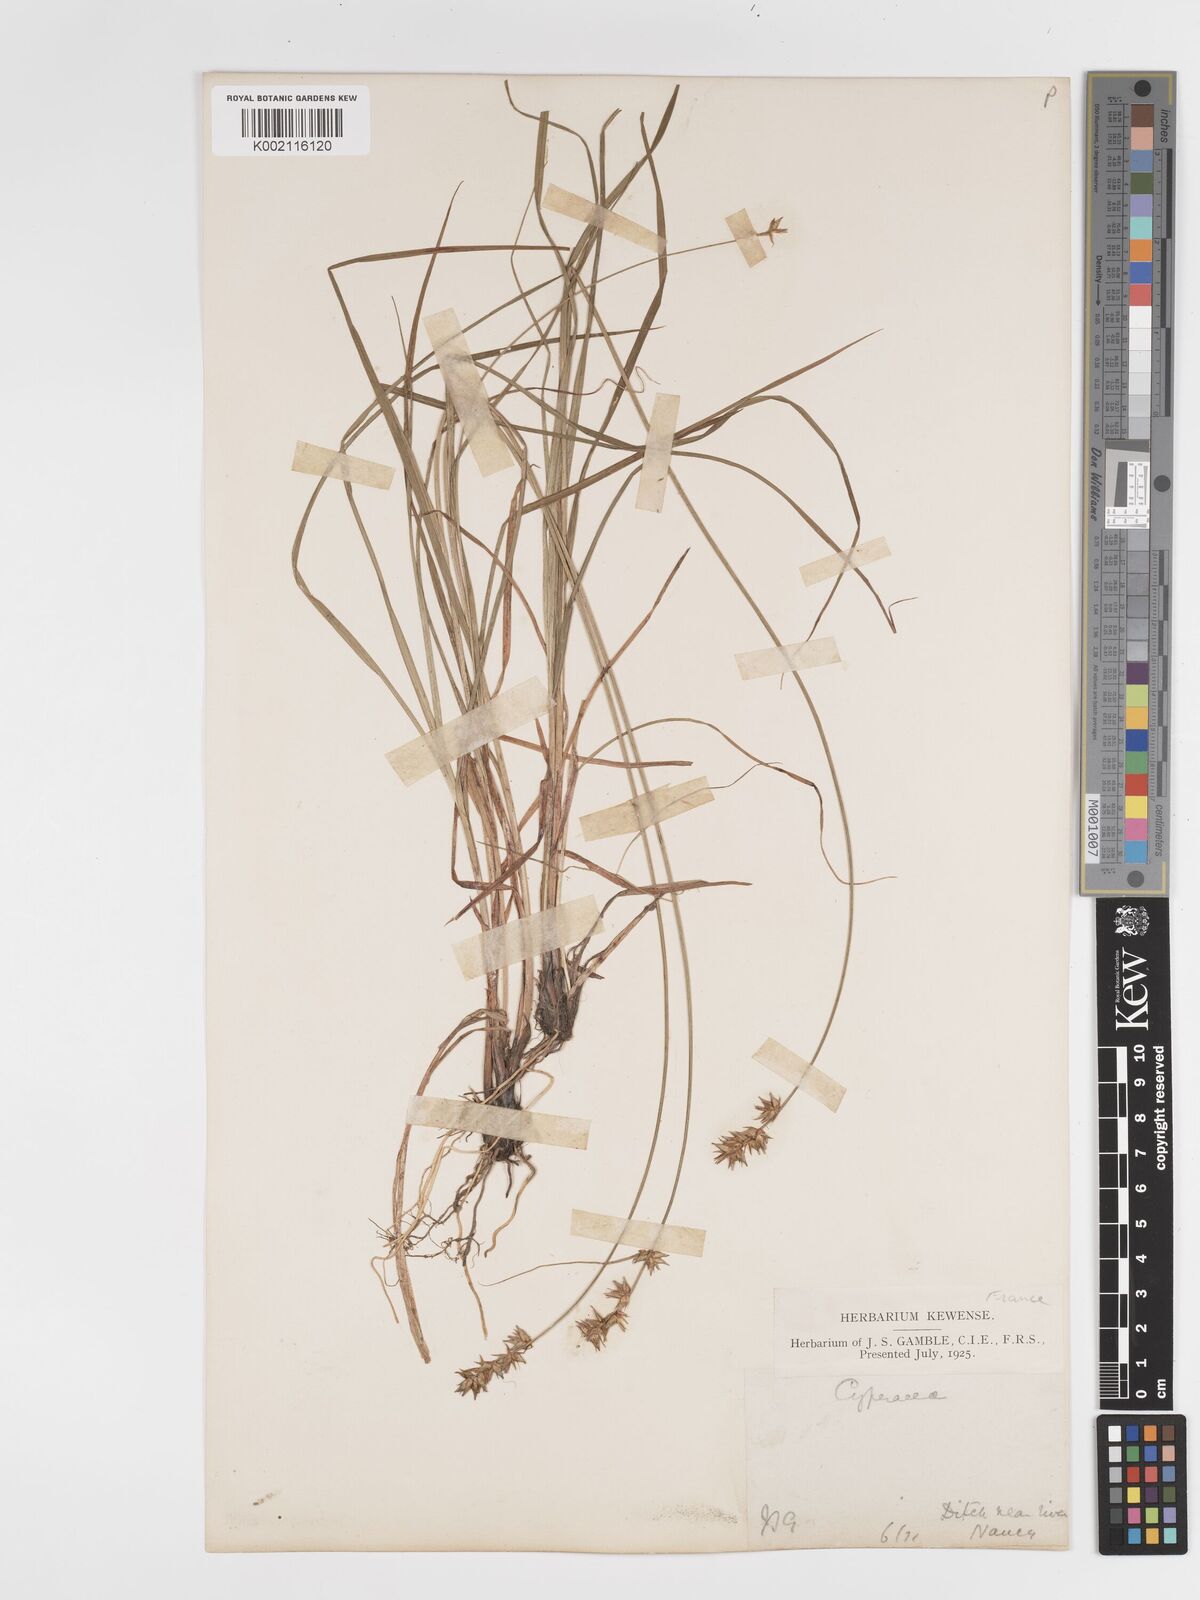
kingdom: Plantae
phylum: Tracheophyta
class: Liliopsida
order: Poales
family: Cyperaceae
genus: Carex
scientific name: Carex spicata
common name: Spiked sedge
